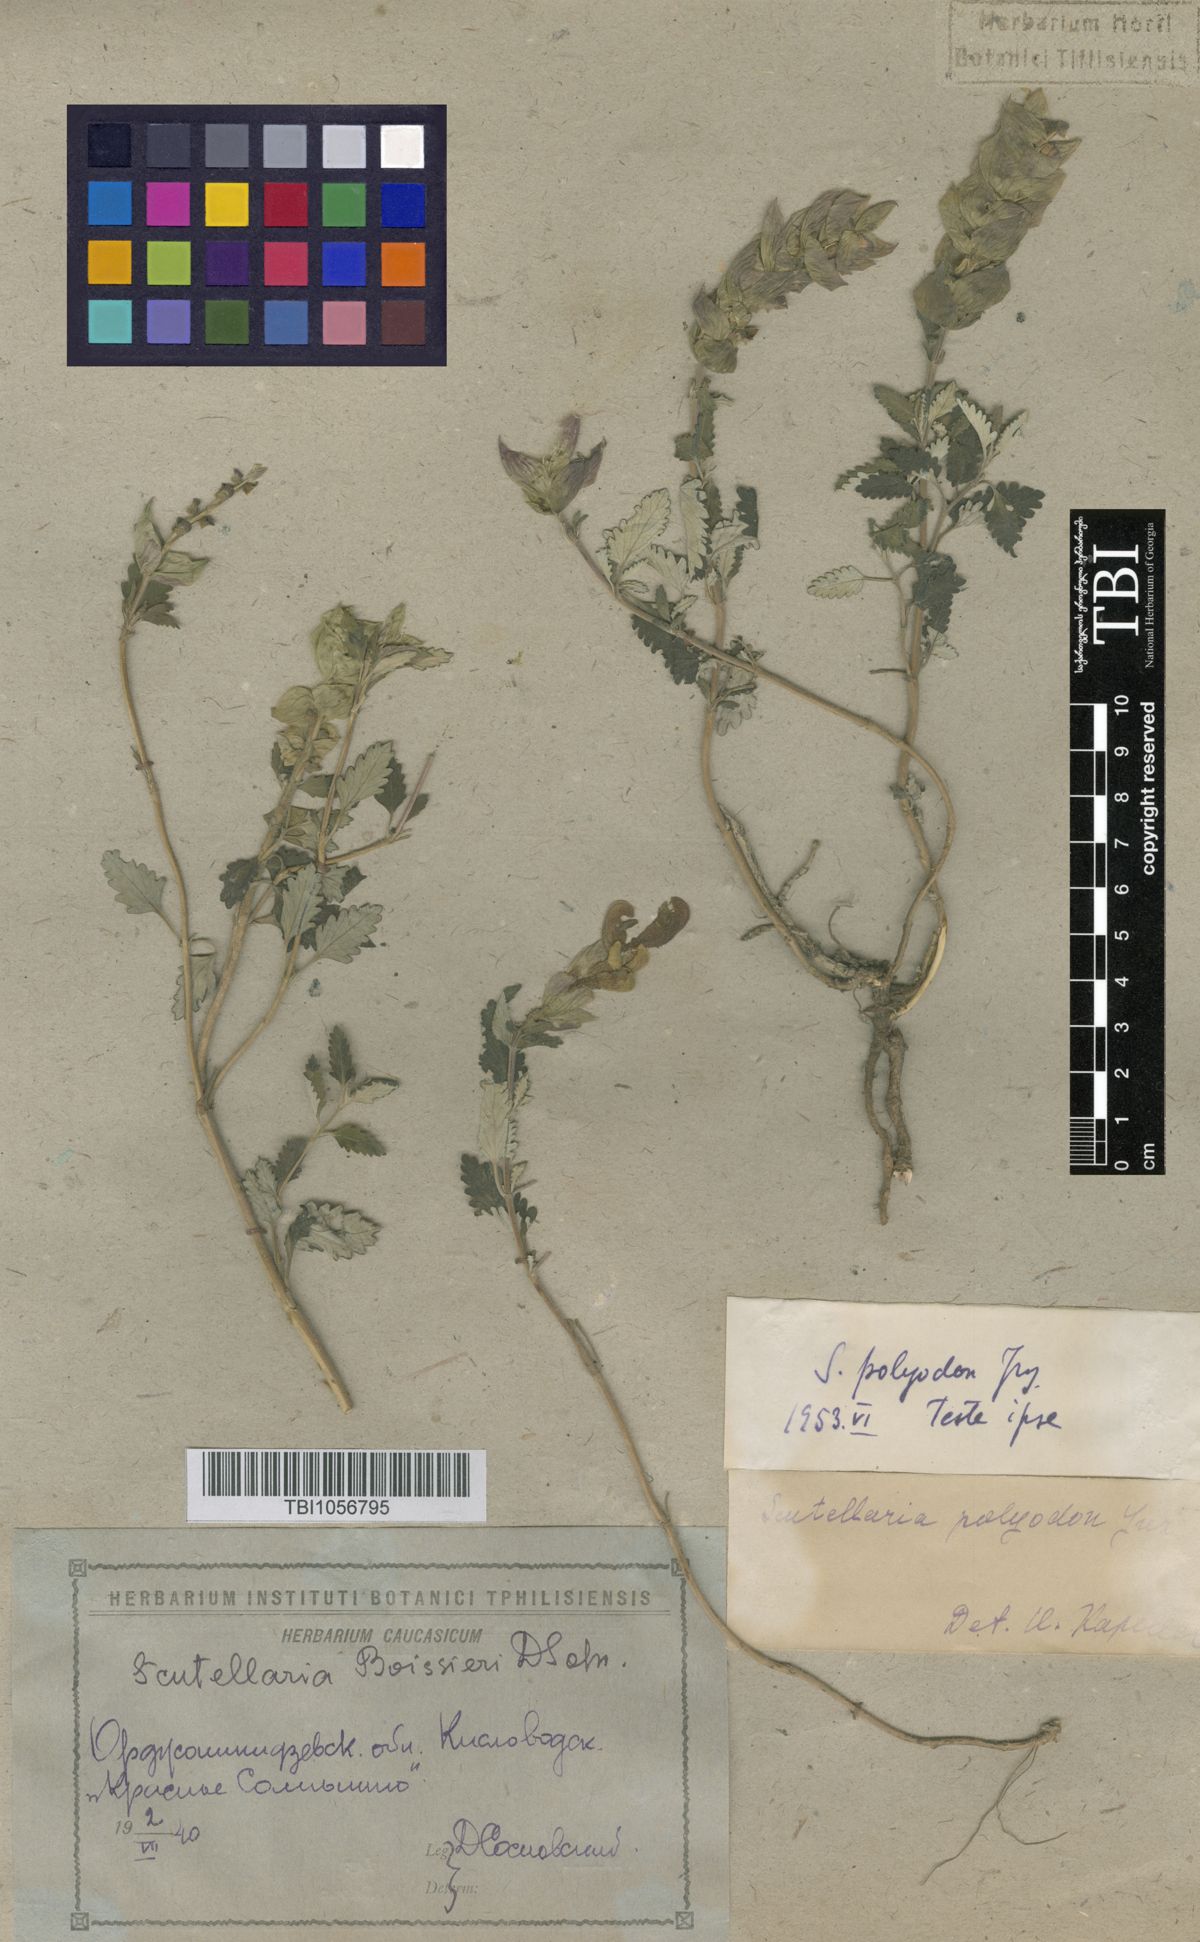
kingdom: Plantae
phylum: Tracheophyta
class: Magnoliopsida
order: Lamiales
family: Lamiaceae
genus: Scutellaria
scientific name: Scutellaria caucasica
